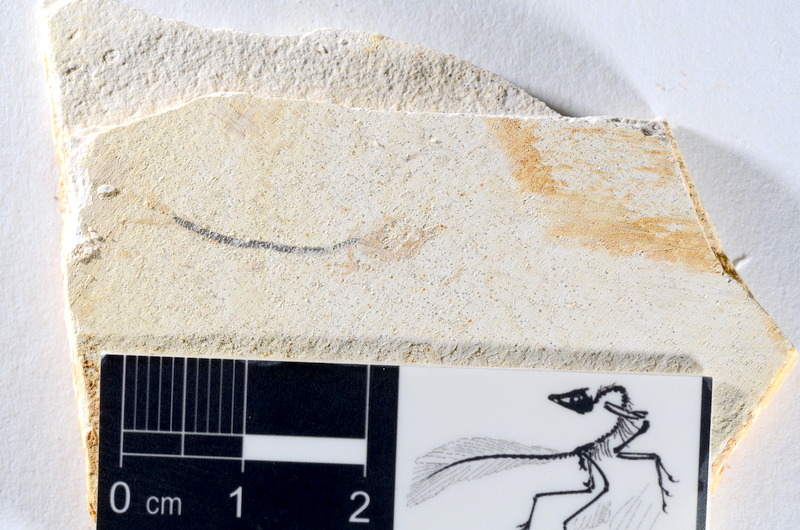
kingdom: Animalia
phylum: Chordata
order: Salmoniformes
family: Orthogonikleithridae
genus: Orthogonikleithrus
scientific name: Orthogonikleithrus hoelli
